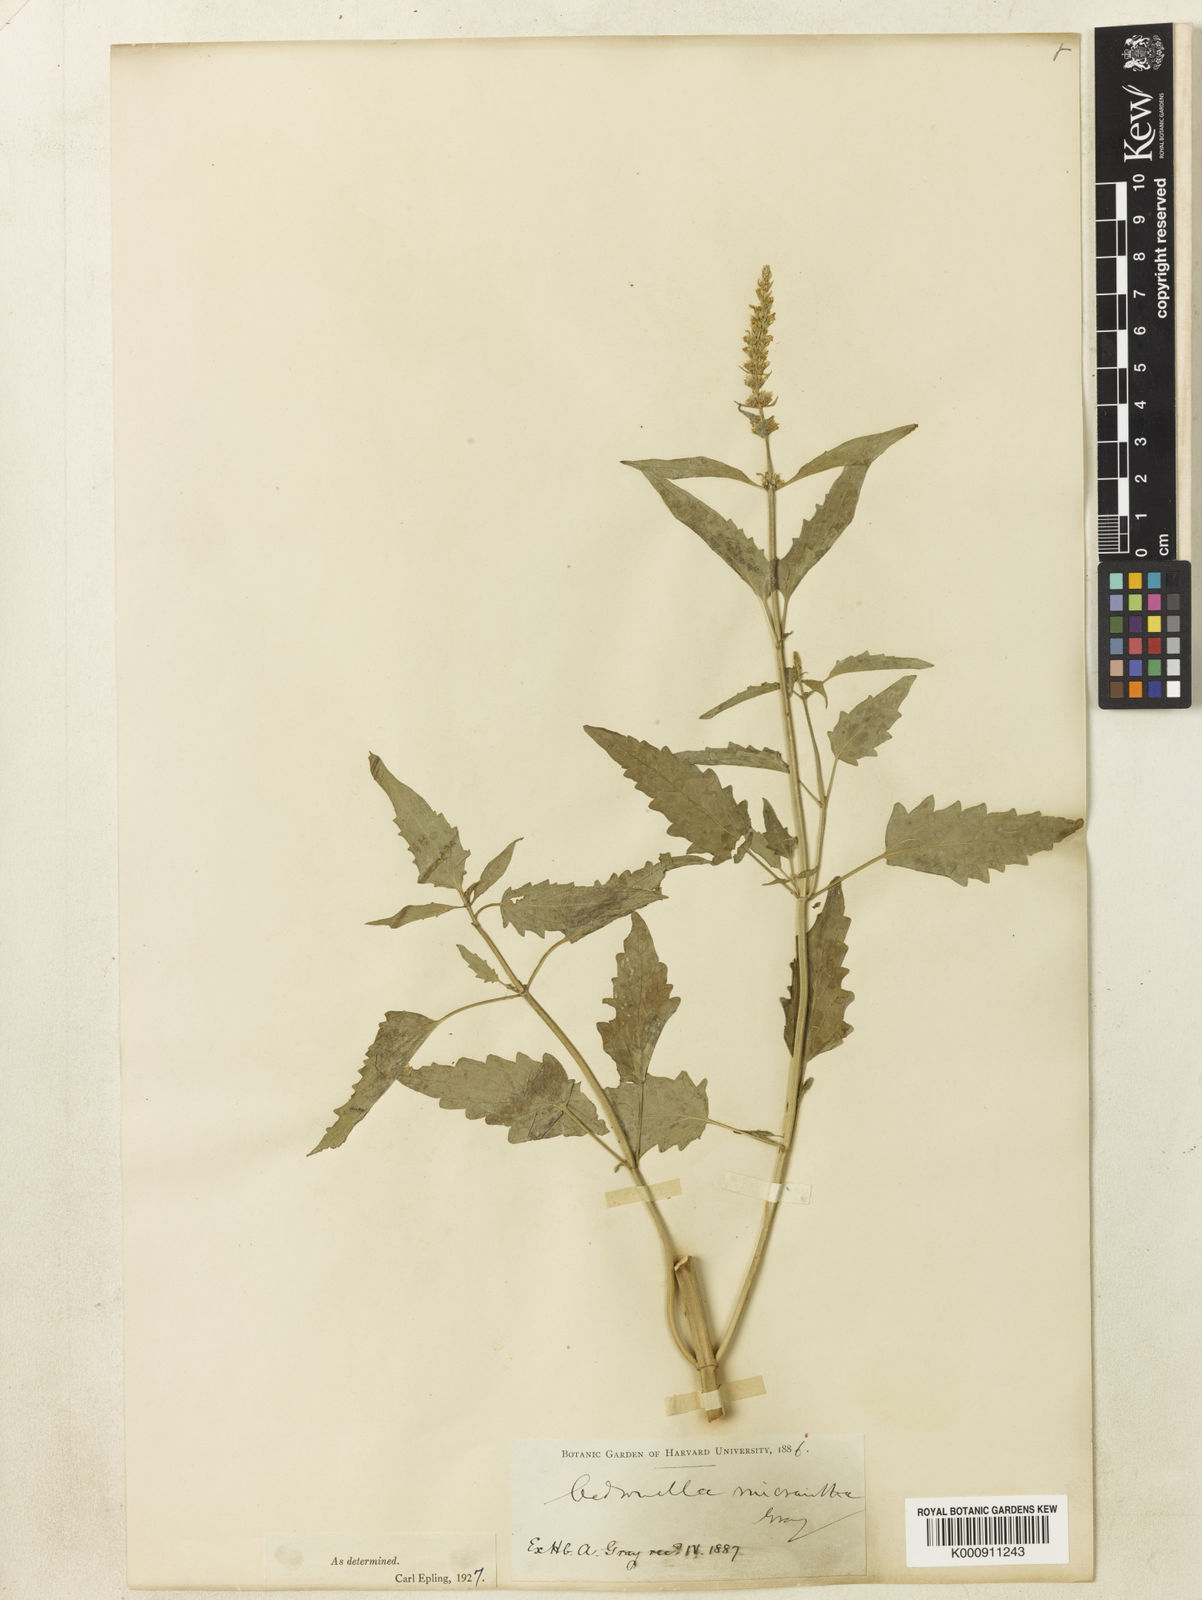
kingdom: Plantae
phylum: Tracheophyta
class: Magnoliopsida
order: Lamiales
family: Lamiaceae
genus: Agastache
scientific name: Agastache micrantha
